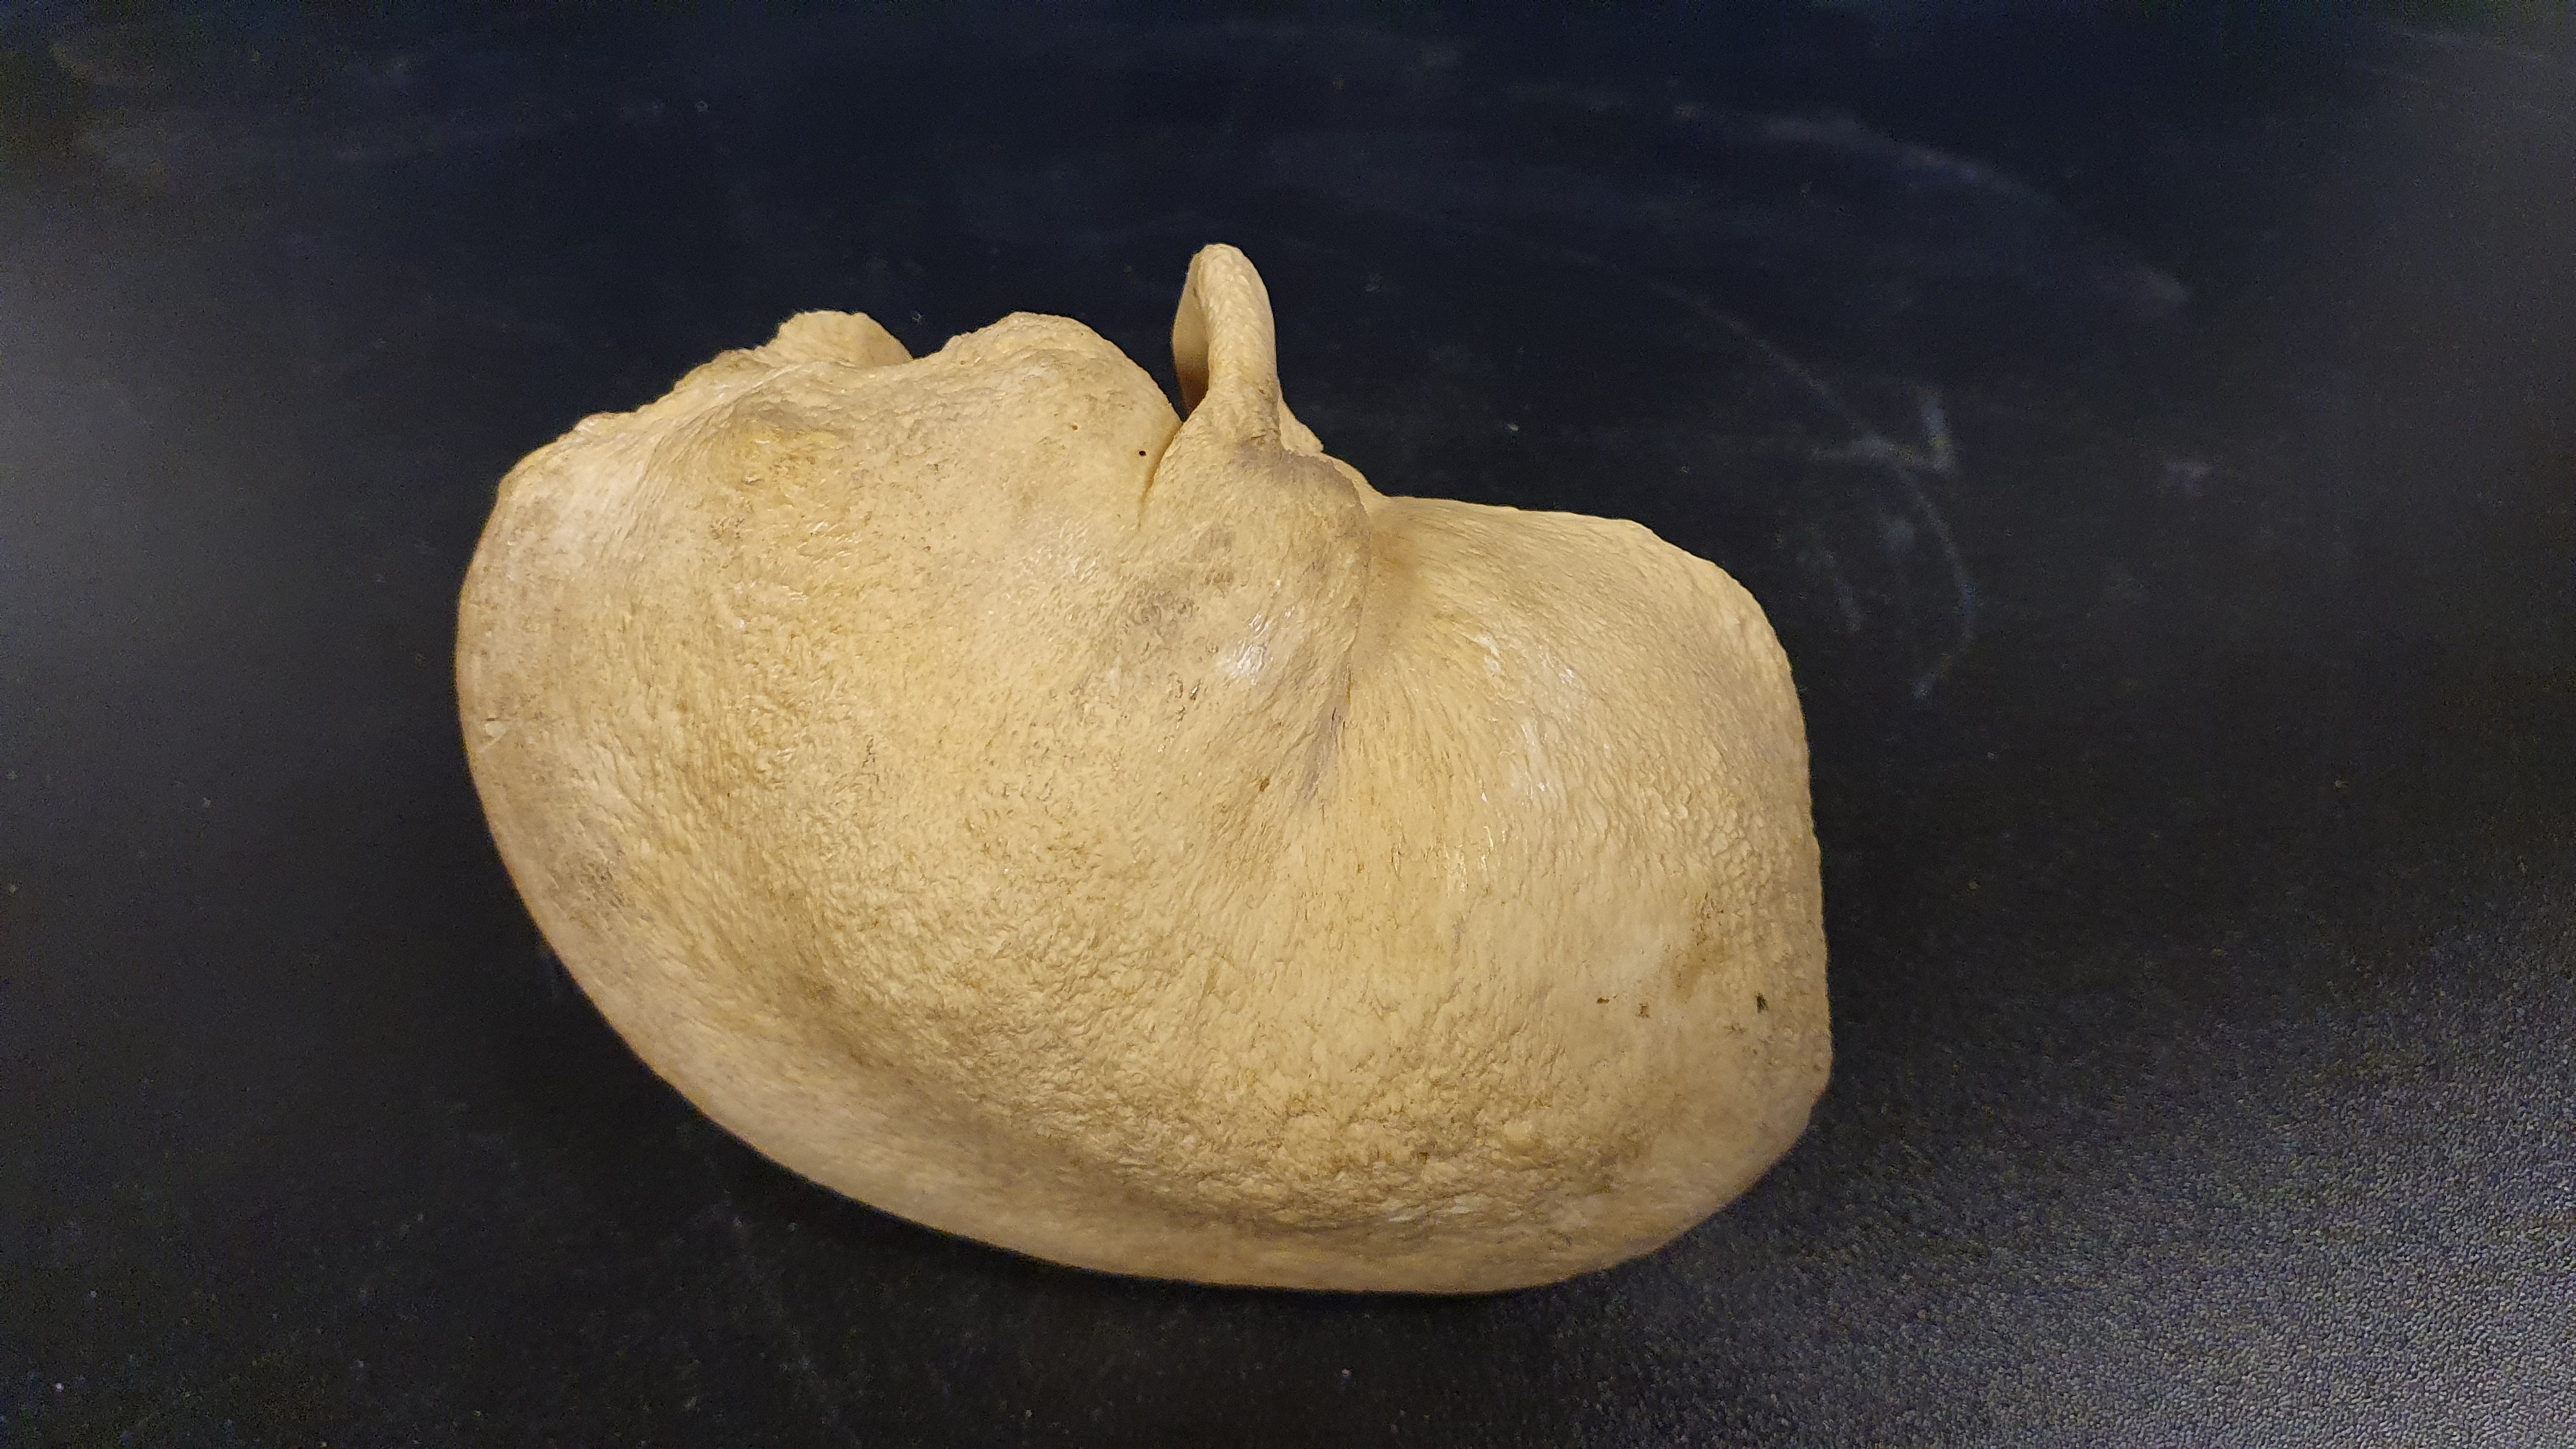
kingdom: Animalia
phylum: Chordata
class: Mammalia
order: Cetacea
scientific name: Cetacea
